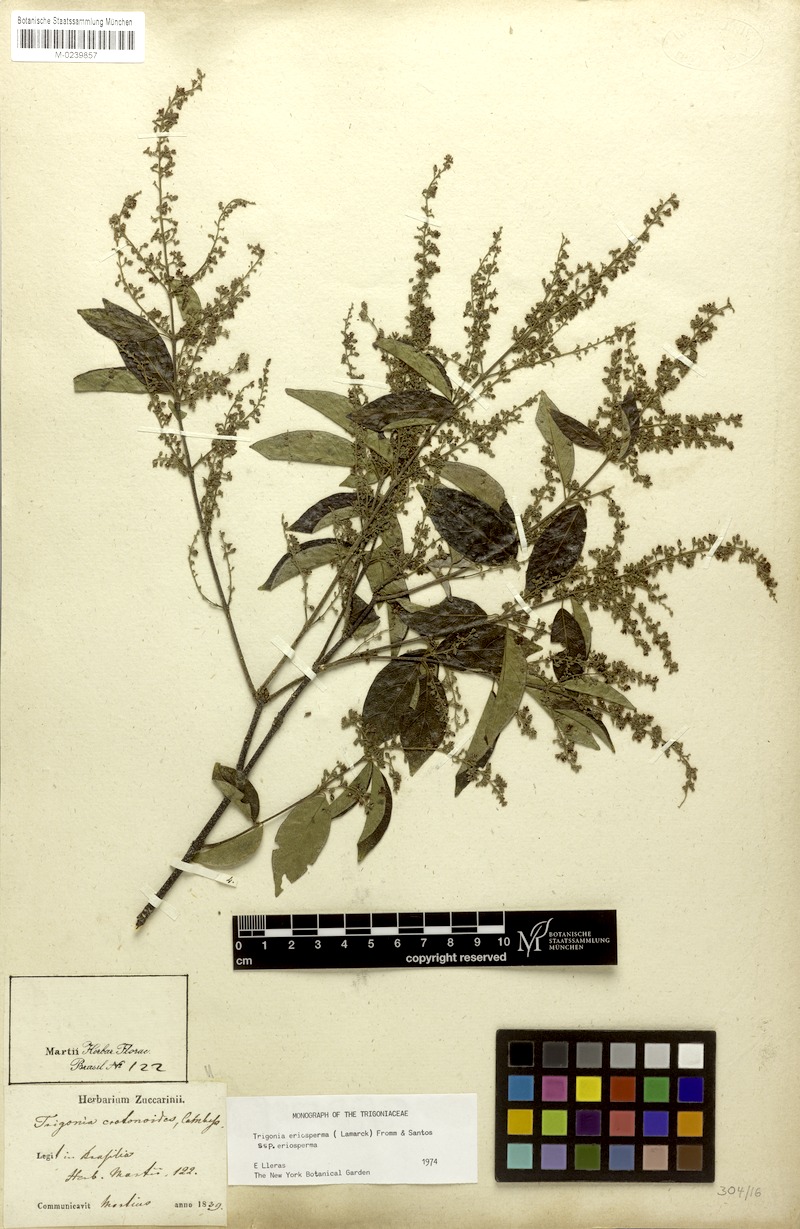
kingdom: Plantae
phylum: Tracheophyta
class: Magnoliopsida
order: Malpighiales
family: Trigoniaceae
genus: Trigonia
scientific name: Trigonia eriosperma
